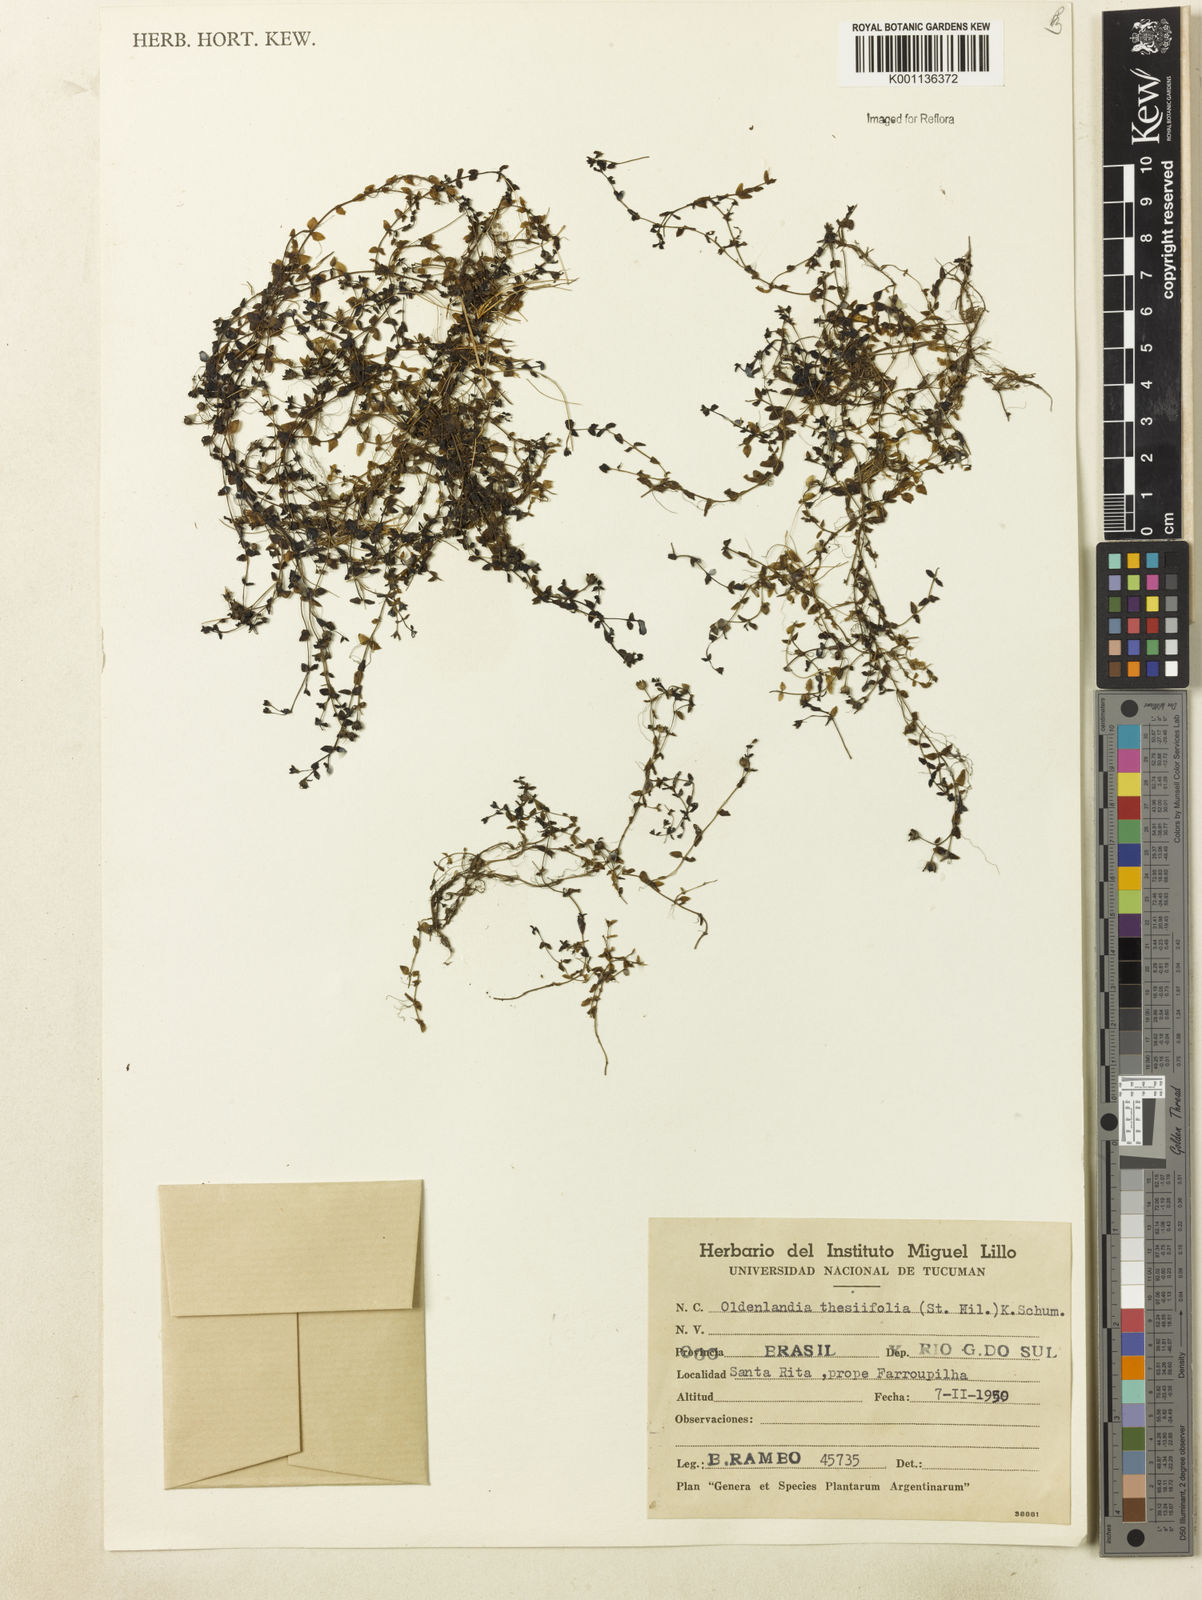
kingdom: Plantae
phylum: Tracheophyta
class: Magnoliopsida
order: Gentianales
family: Rubiaceae
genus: Oldenlandia
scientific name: Oldenlandia salzmannii
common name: Salzmann's mille graines
